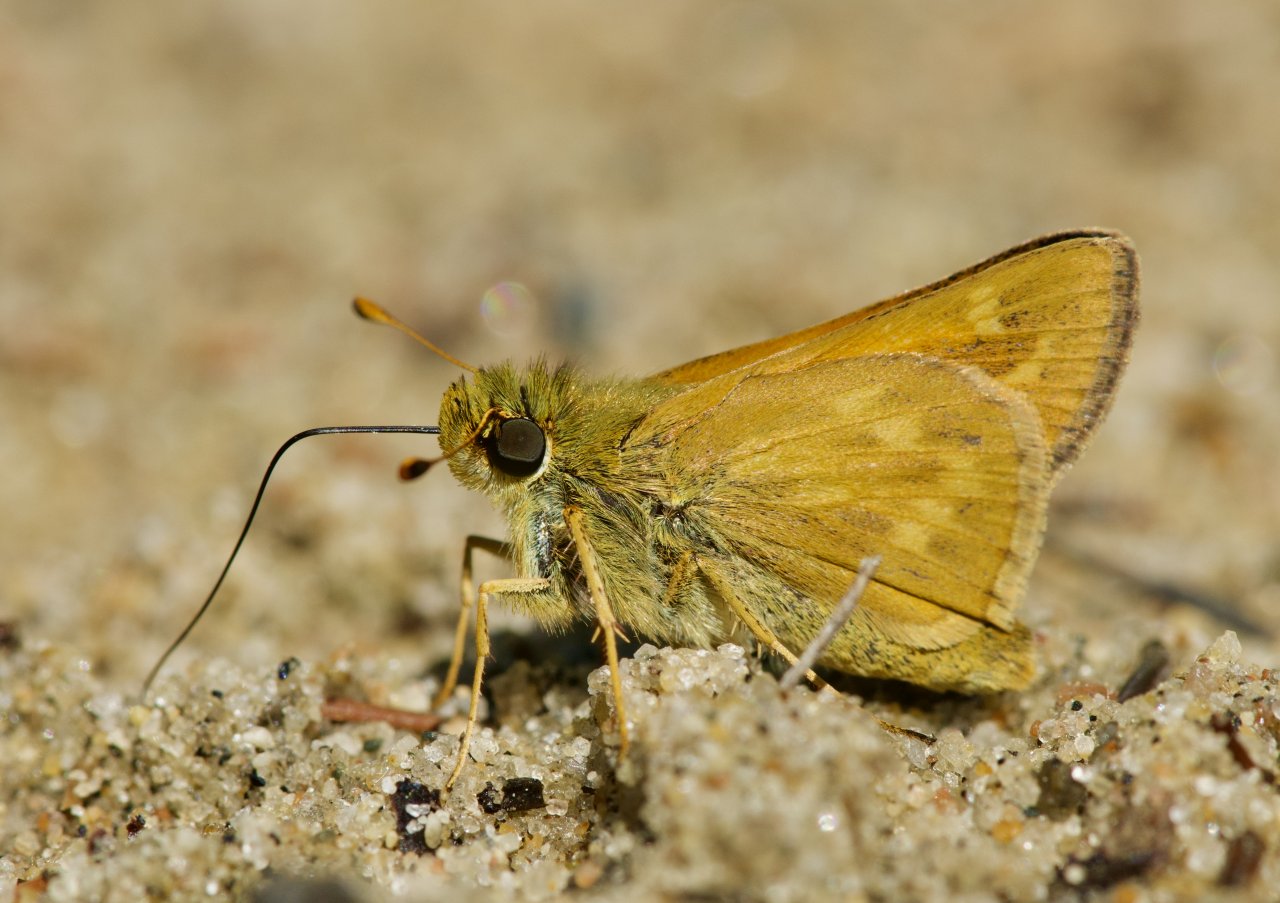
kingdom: Animalia
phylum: Arthropoda
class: Insecta
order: Lepidoptera
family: Hesperiidae
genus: Hesperia
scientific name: Hesperia sassacus
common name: Sassacus Skipper
